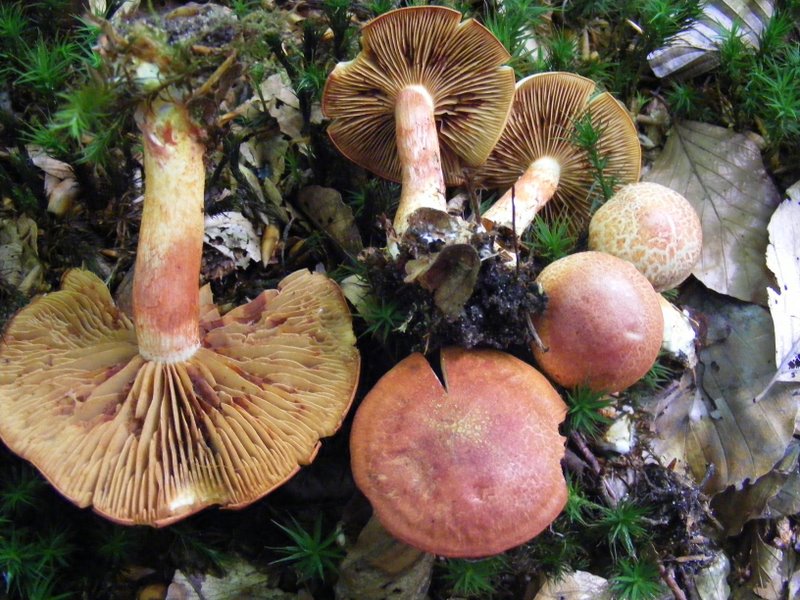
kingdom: Fungi
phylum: Basidiomycota
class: Agaricomycetes
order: Agaricales
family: Cortinariaceae
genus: Cortinarius
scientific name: Cortinarius bolaris
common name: cinnoberskællet slørhat
